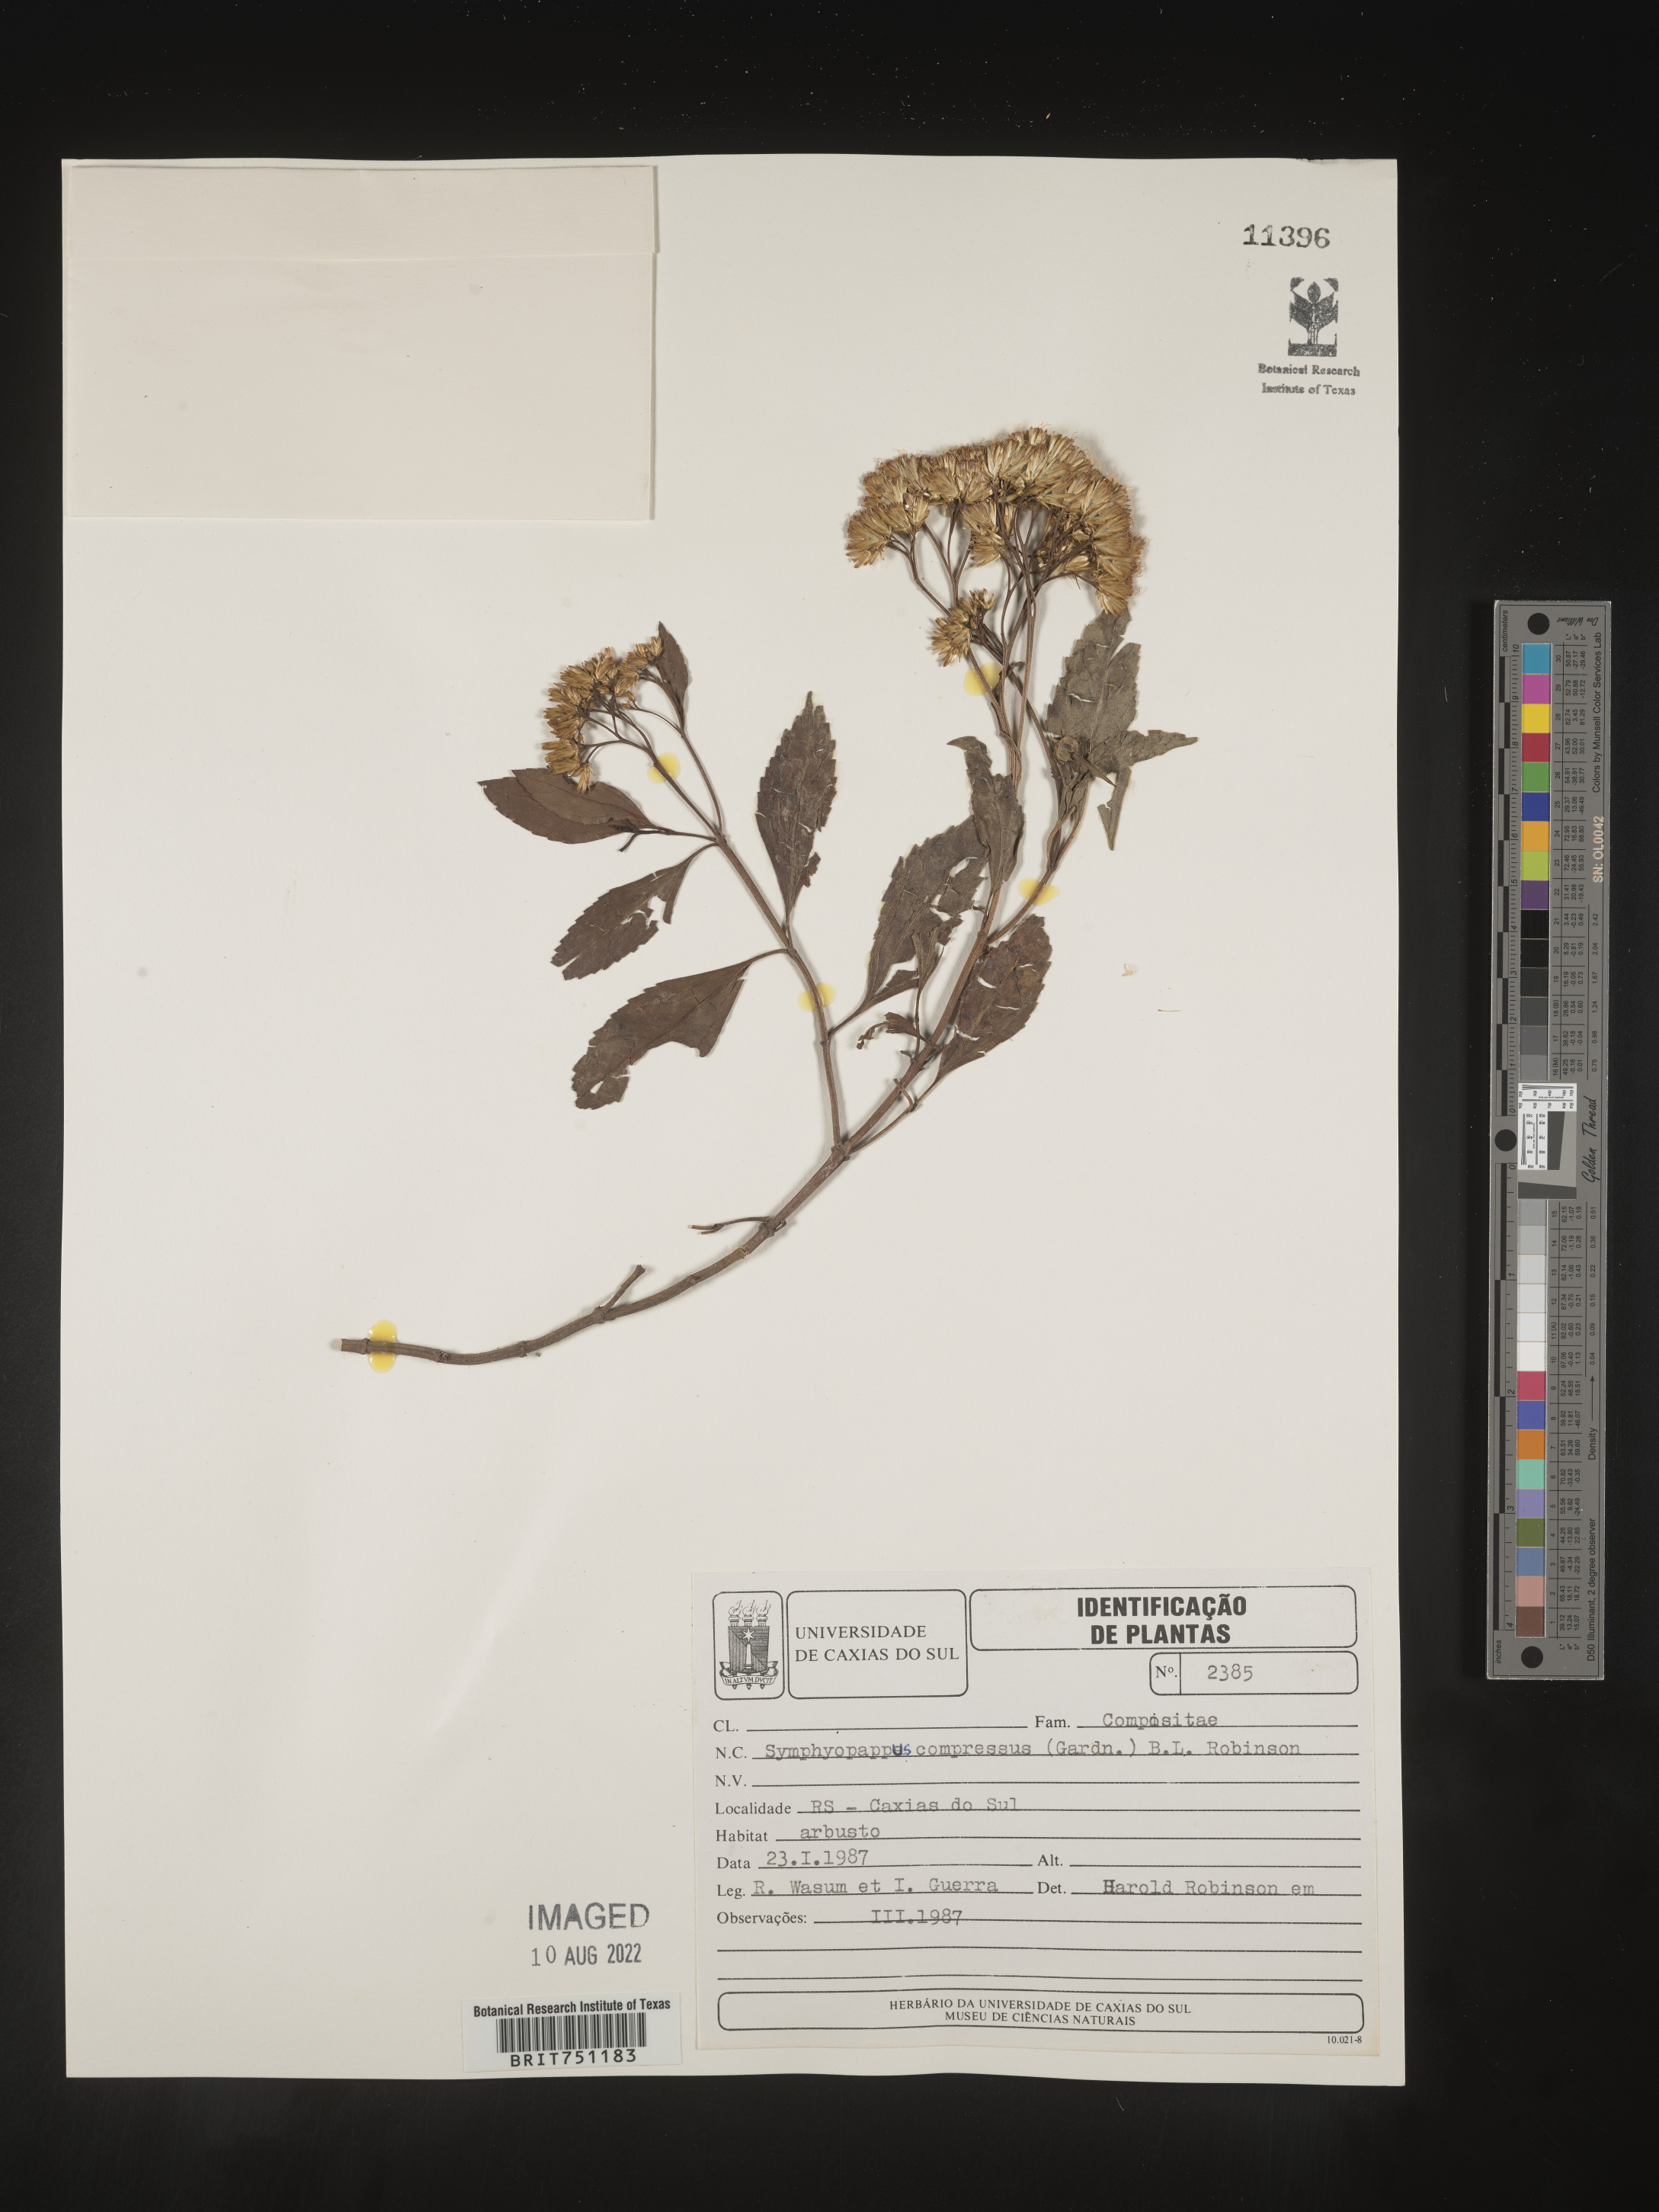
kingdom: Plantae
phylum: Tracheophyta
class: Magnoliopsida
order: Asterales
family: Asteraceae
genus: Symphyopappus
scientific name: Symphyopappus
